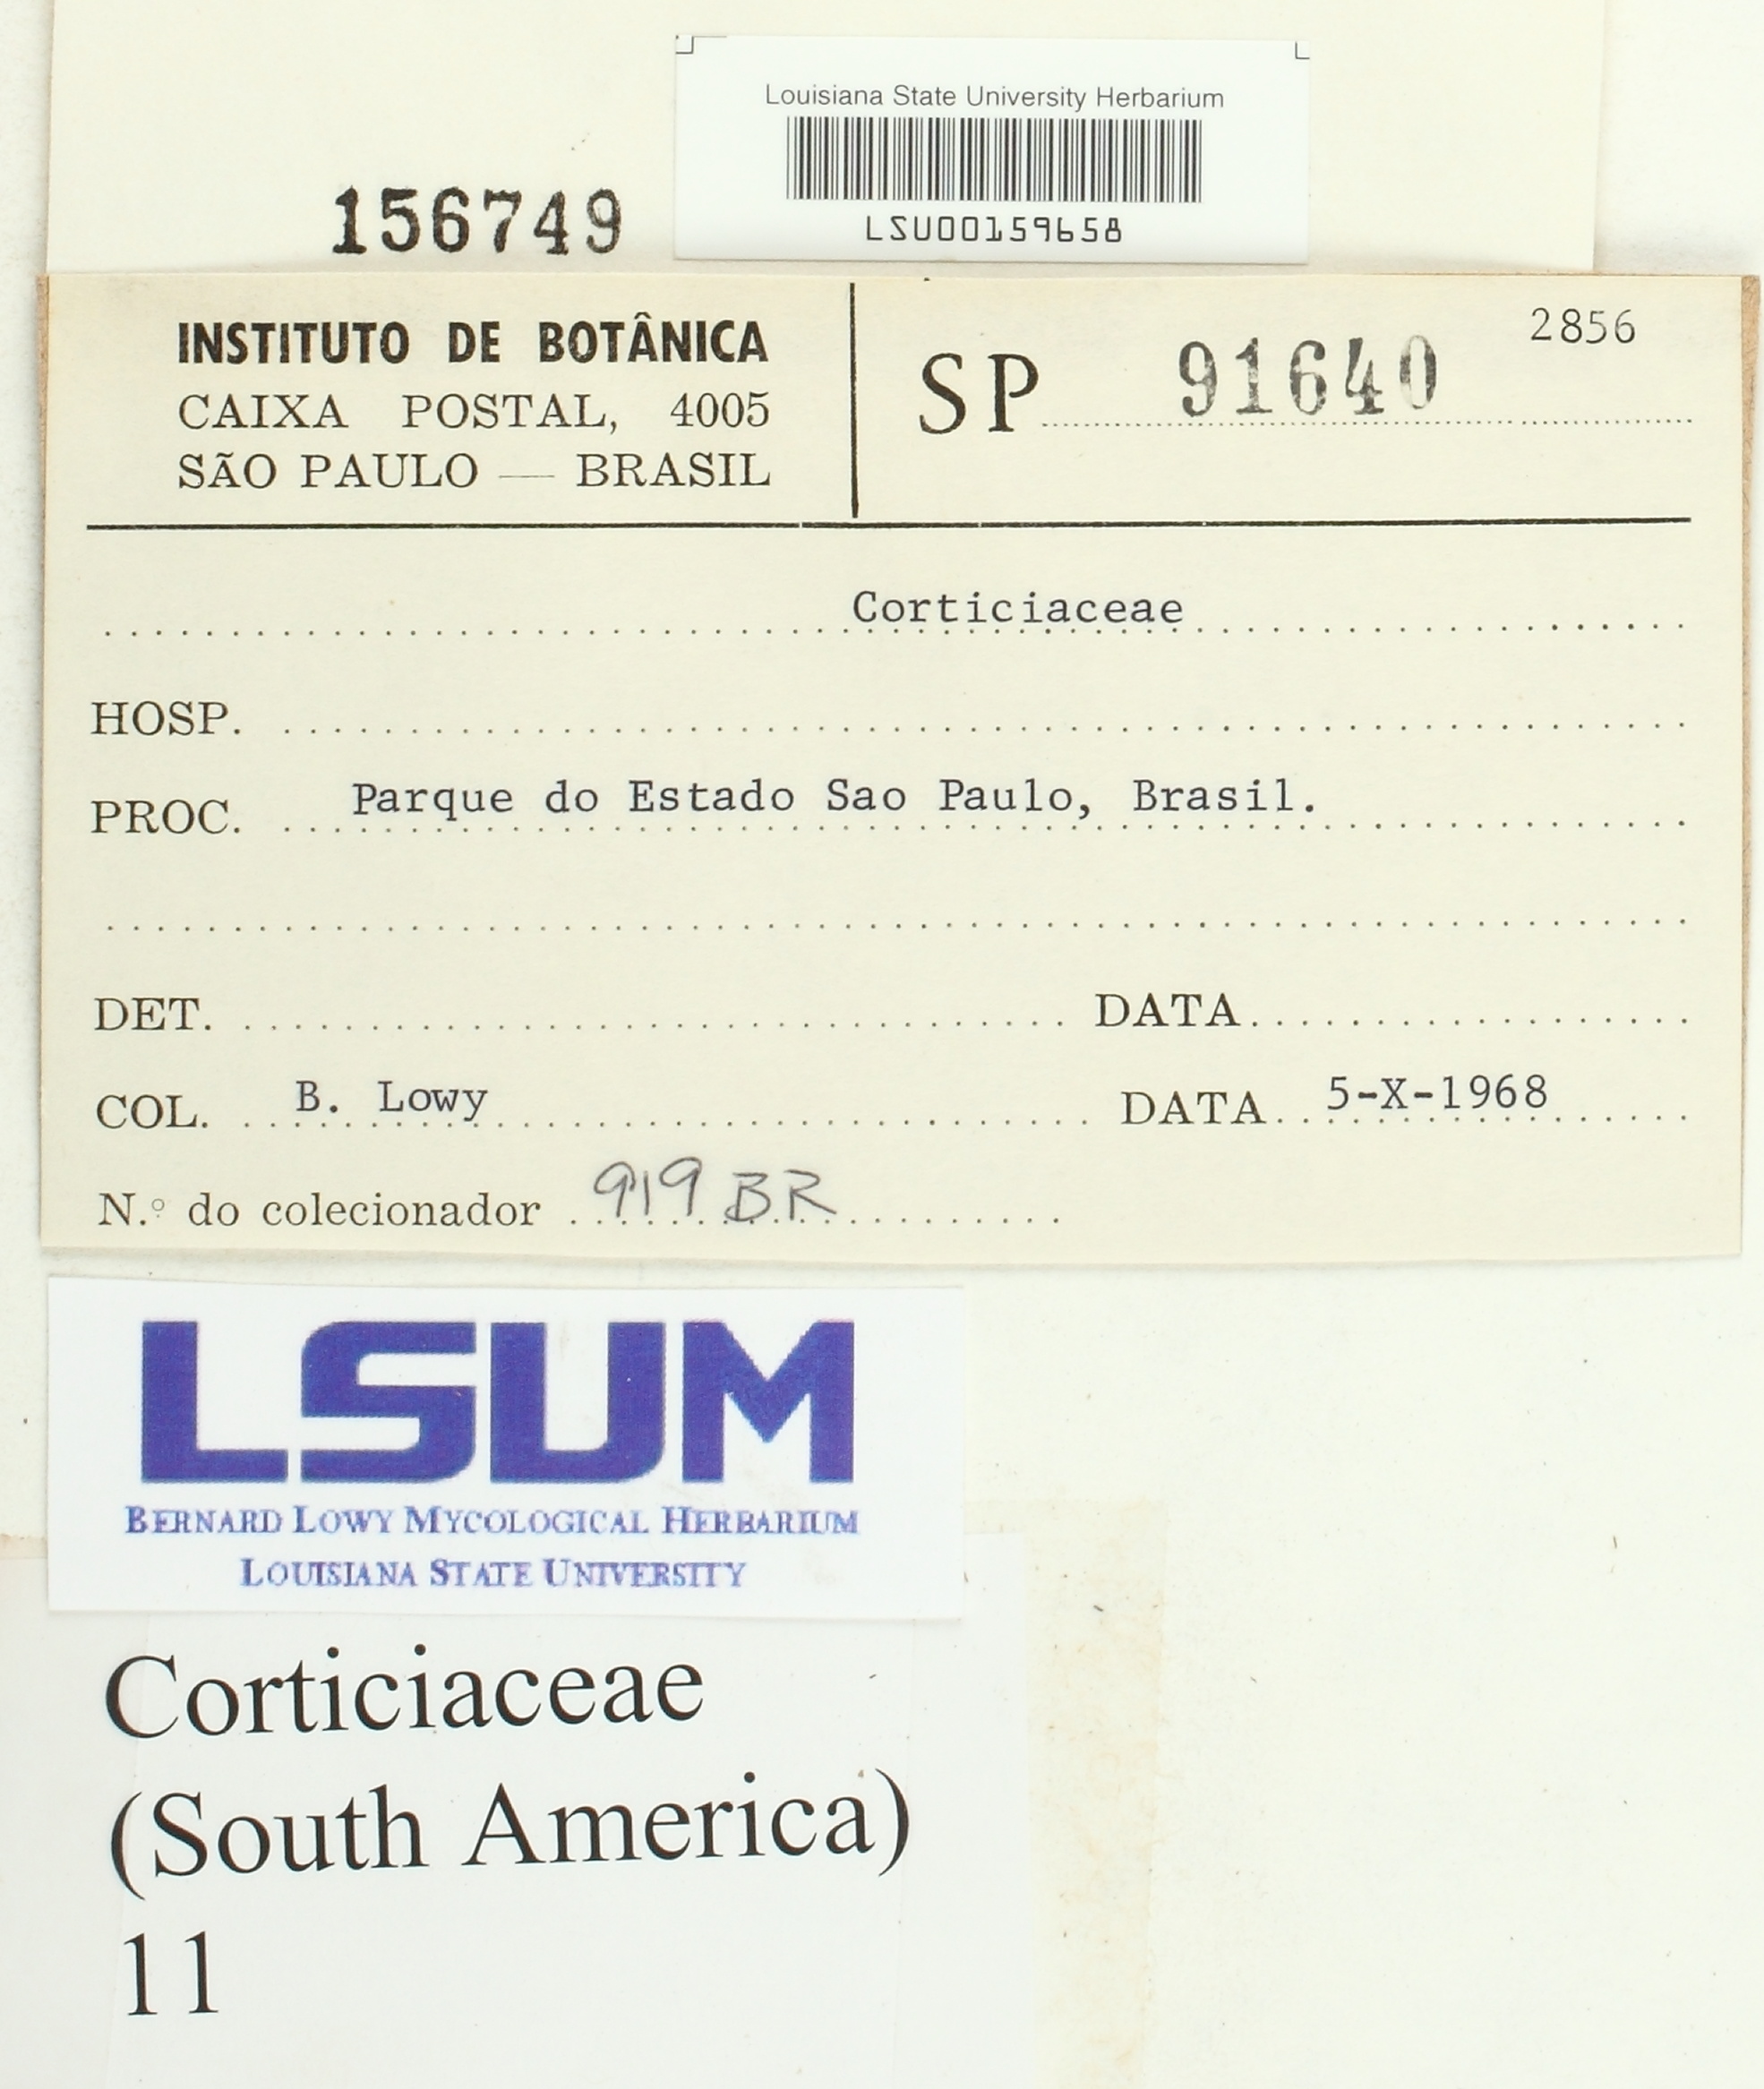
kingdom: Fungi
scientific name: Fungi
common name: Fungi
